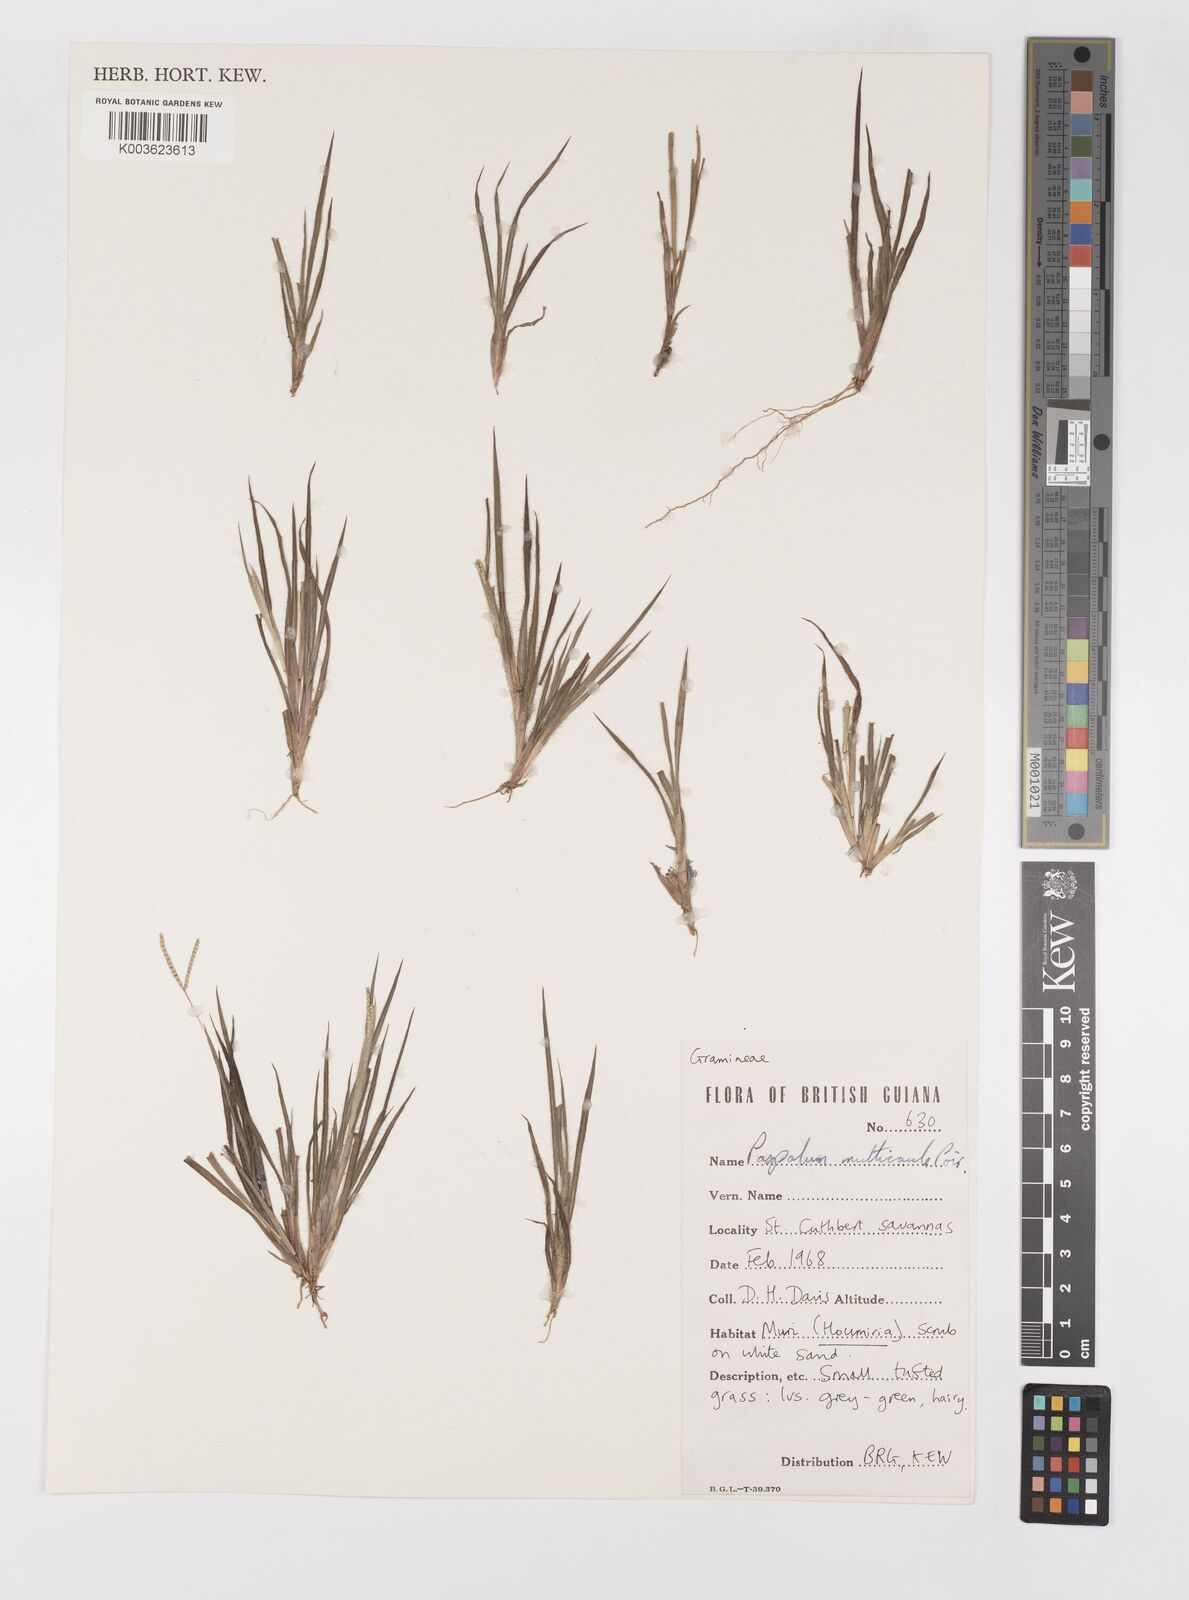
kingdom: Plantae
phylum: Tracheophyta
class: Liliopsida
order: Poales
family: Poaceae
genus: Paspalum
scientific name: Paspalum multicaule
